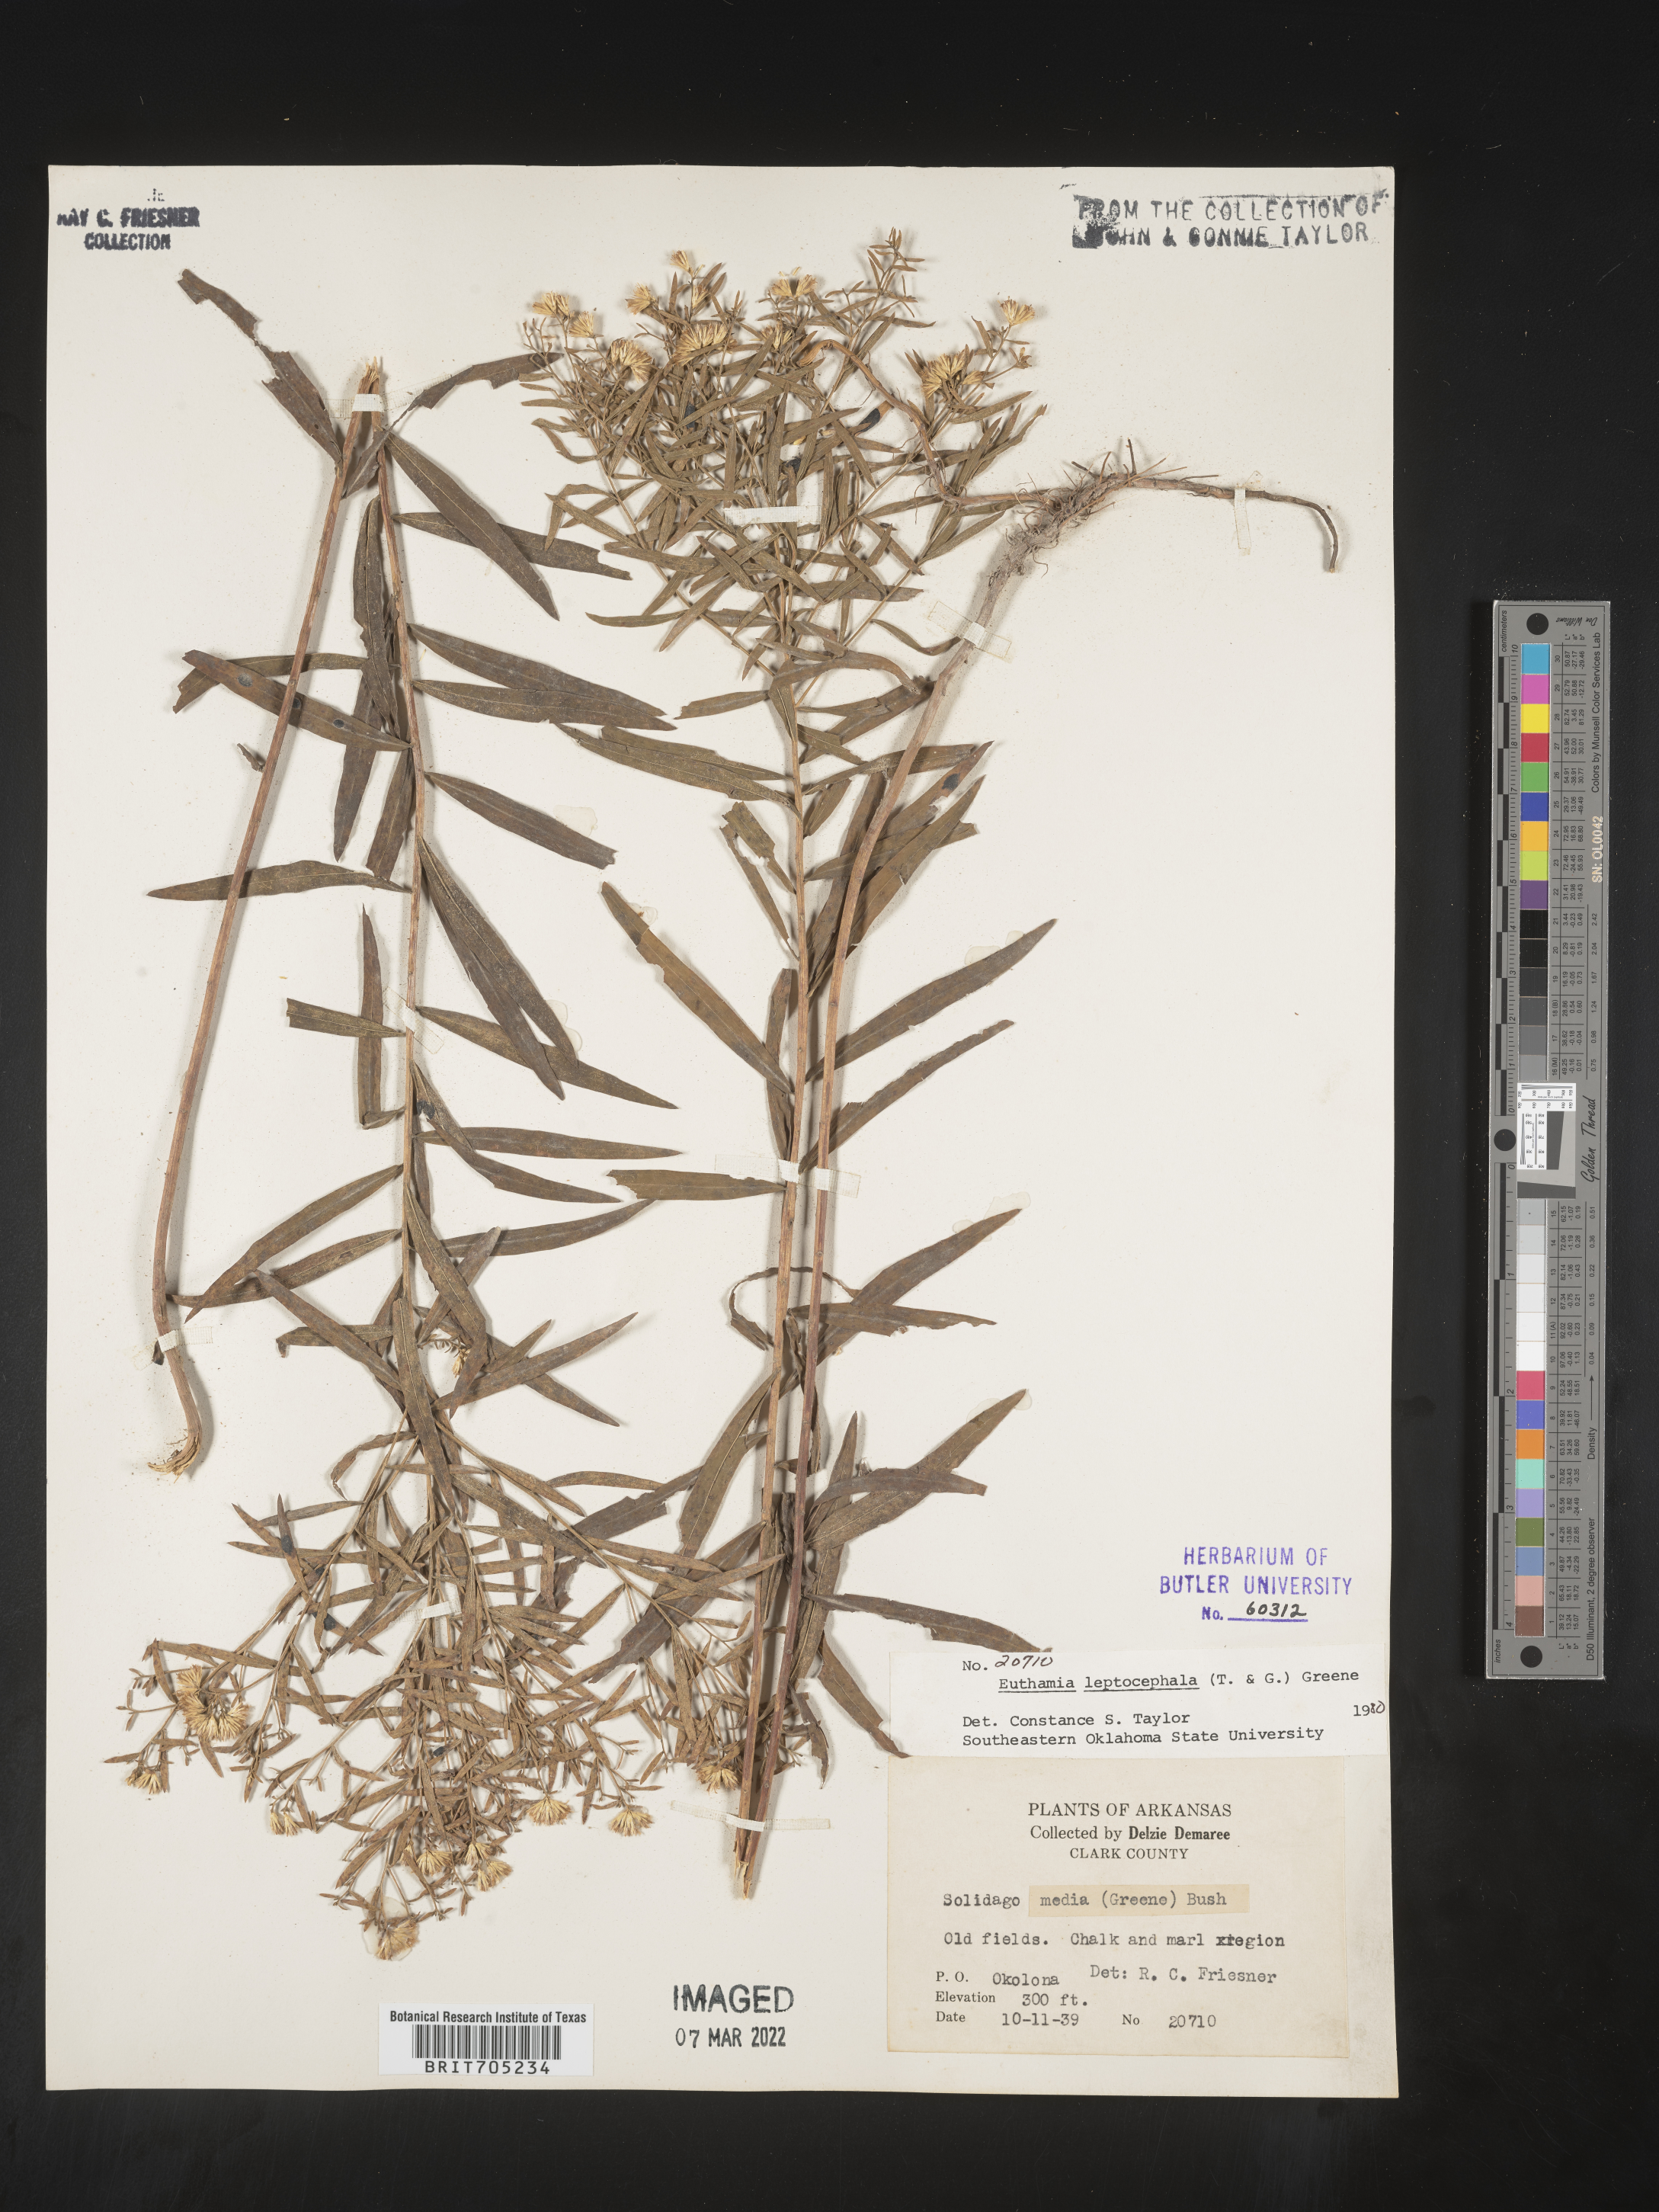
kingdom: Plantae
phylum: Tracheophyta
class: Magnoliopsida
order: Asterales
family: Asteraceae
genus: Euthamia
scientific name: Euthamia leptocephala
